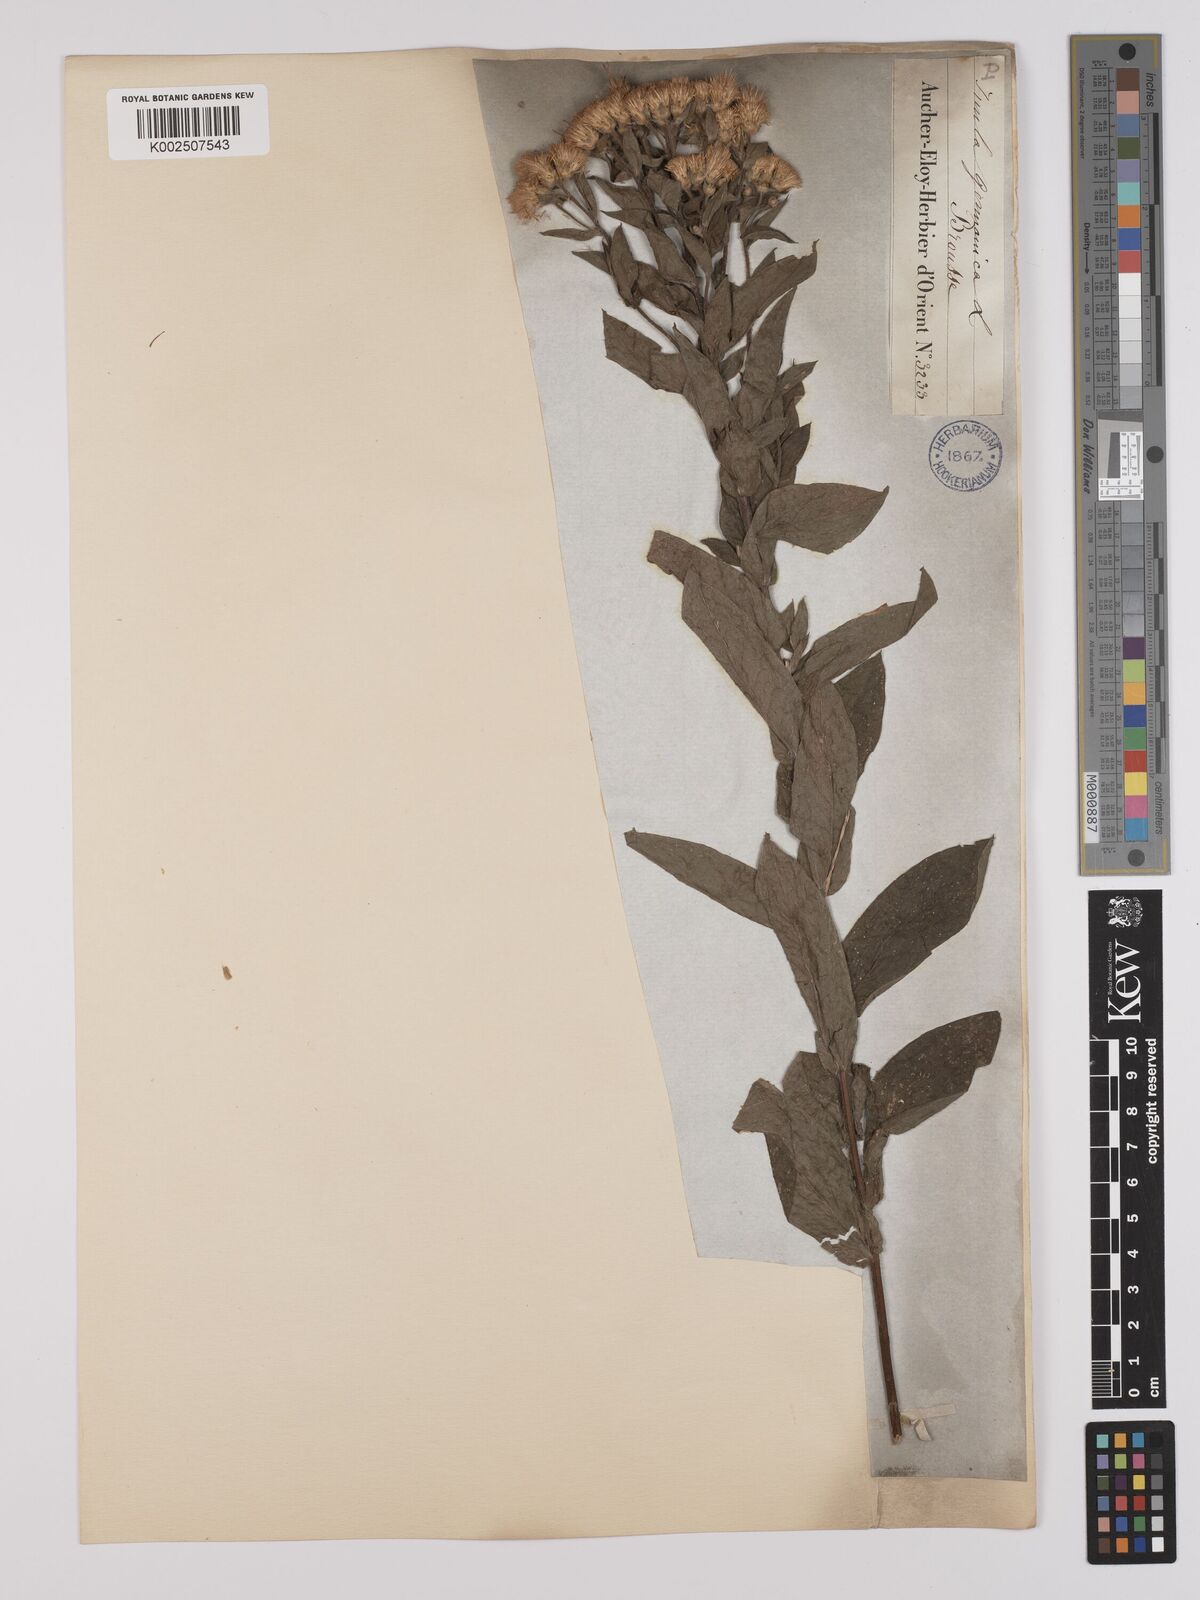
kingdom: Plantae
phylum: Tracheophyta
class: Magnoliopsida
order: Asterales
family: Asteraceae
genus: Pentanema
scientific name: Pentanema germanicum
